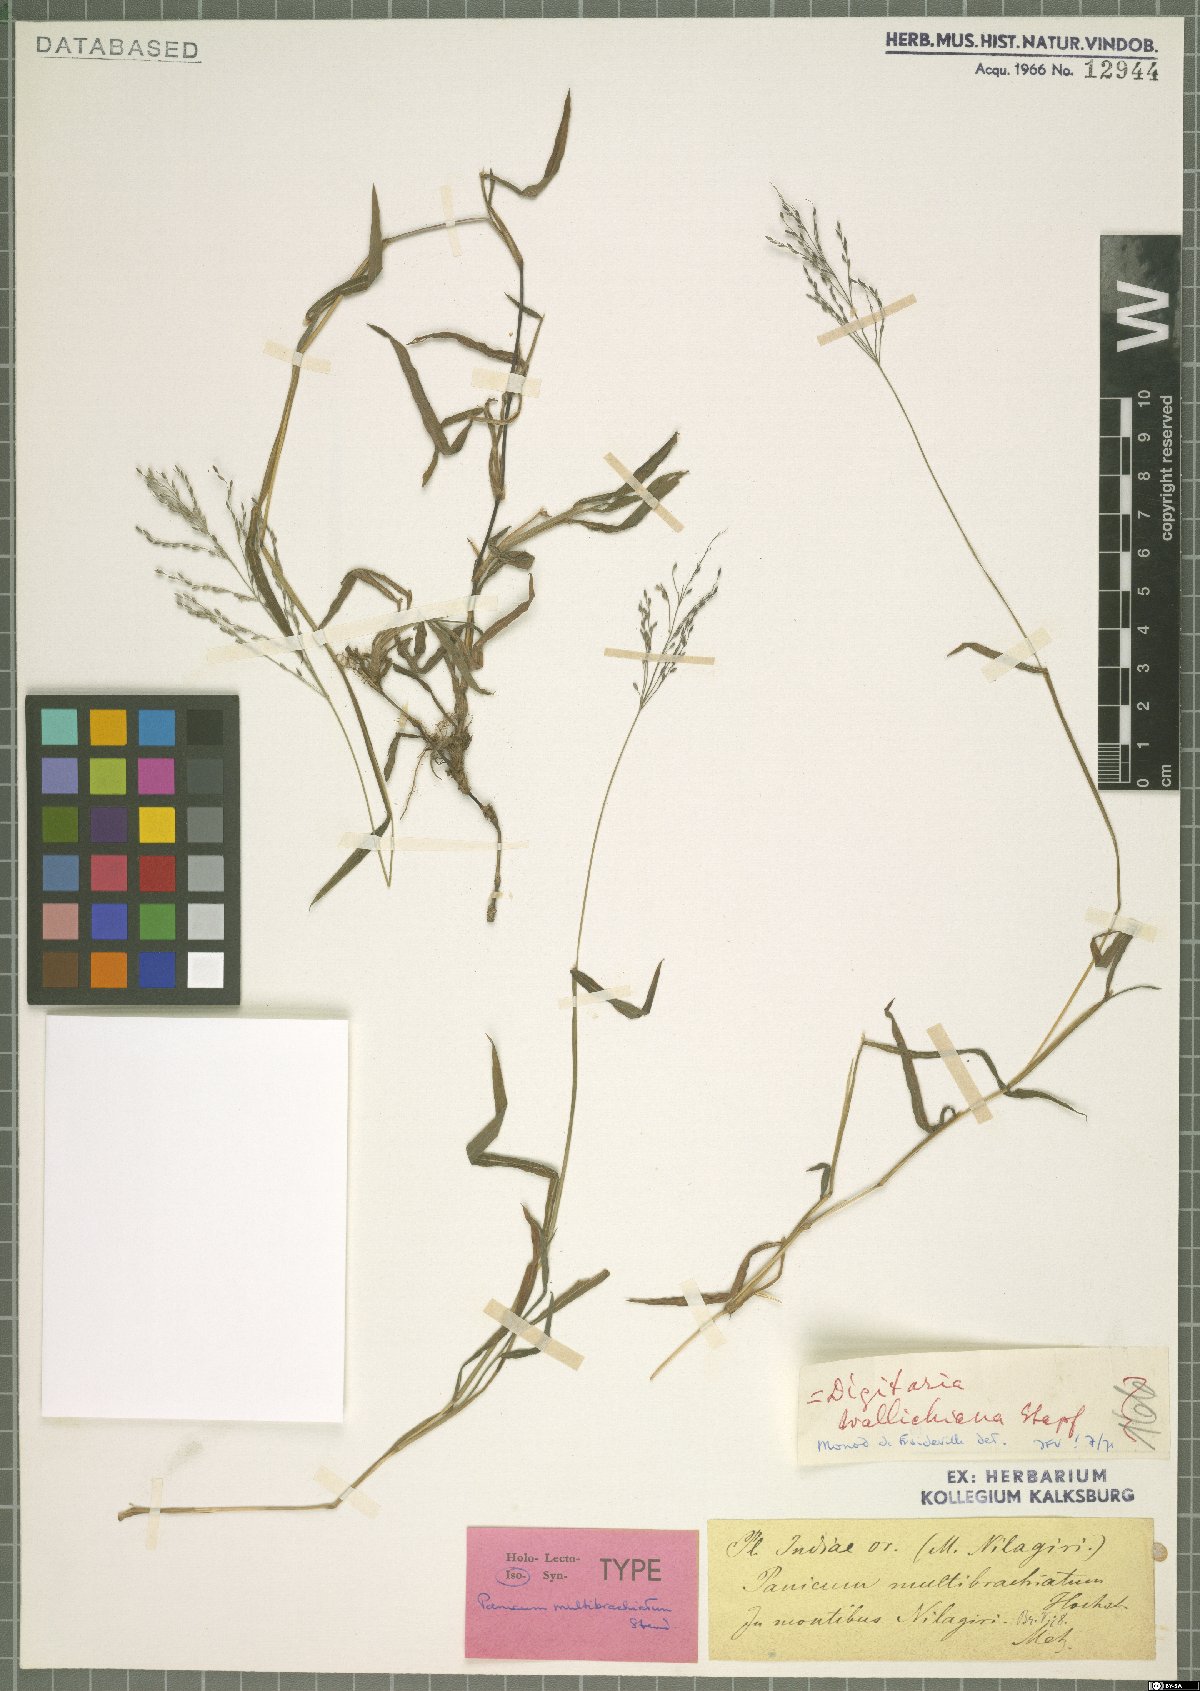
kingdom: Plantae
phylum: Tracheophyta
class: Liliopsida
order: Poales
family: Poaceae
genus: Digitaria
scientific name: Digitaria wallichiana
